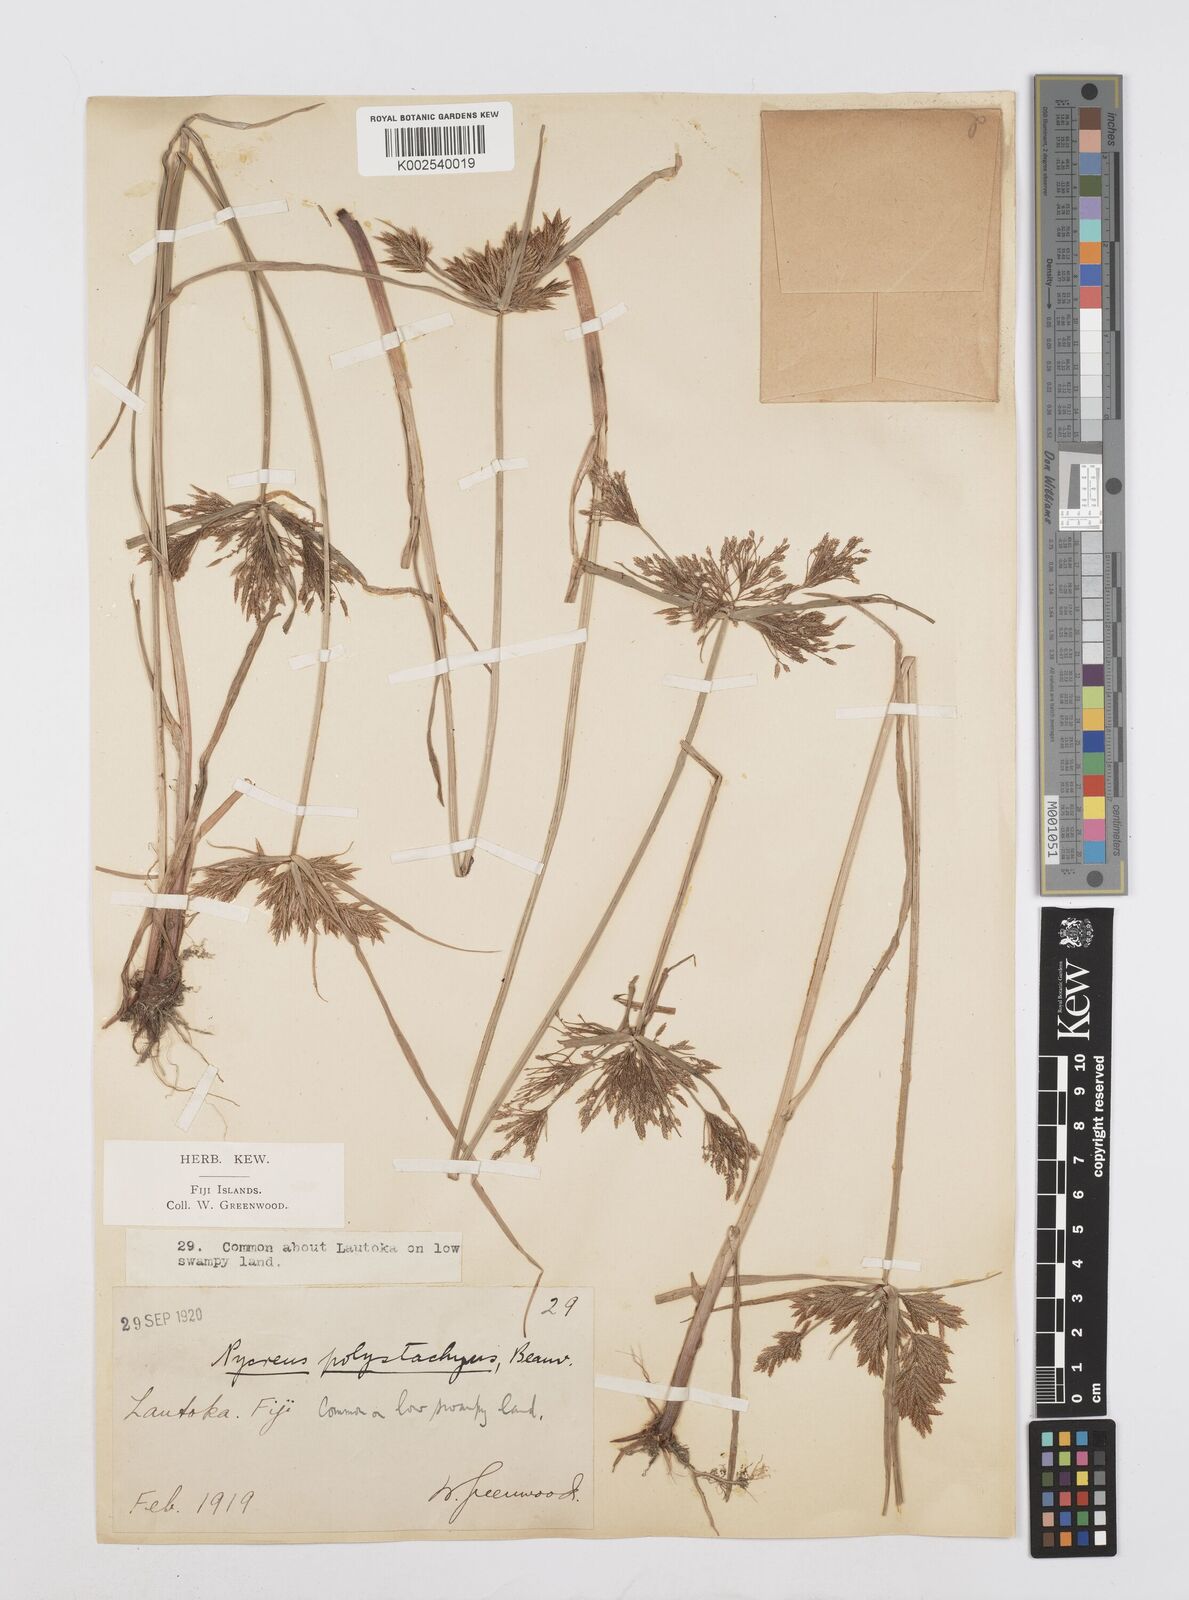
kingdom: Plantae
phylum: Tracheophyta
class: Liliopsida
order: Poales
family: Cyperaceae
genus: Cyperus
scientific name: Cyperus polystachyos
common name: Bunchy flat sedge
